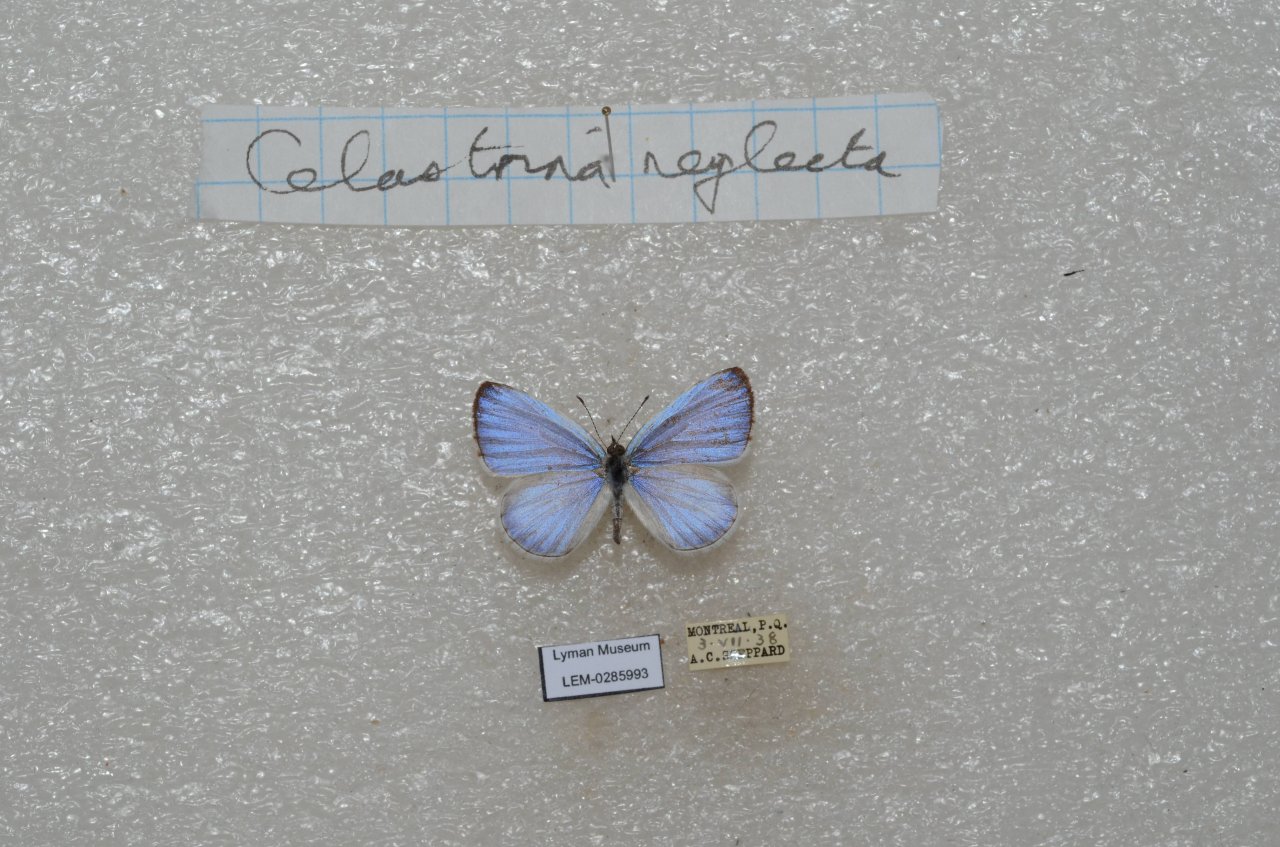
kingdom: Animalia
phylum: Arthropoda
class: Insecta
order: Lepidoptera
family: Lycaenidae
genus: Celastrina
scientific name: Celastrina lucia
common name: Northern Spring Azure
